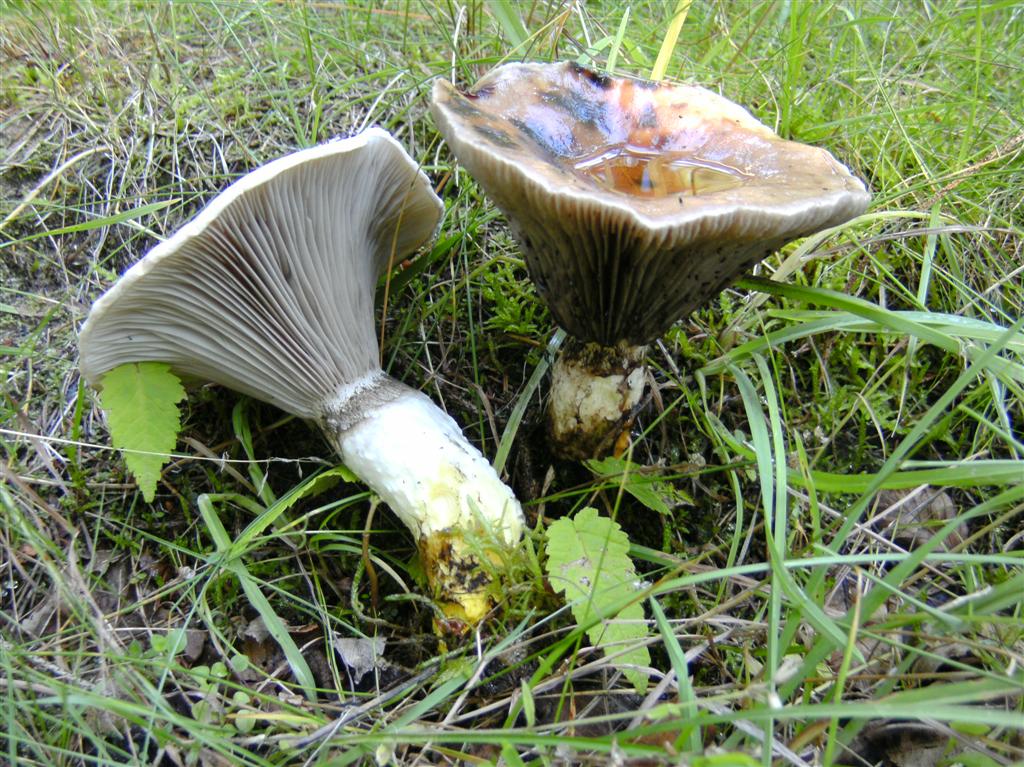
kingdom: Fungi
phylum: Basidiomycota
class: Agaricomycetes
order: Boletales
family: Gomphidiaceae
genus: Gomphidius
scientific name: Gomphidius glutinosus
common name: grå slimslør
